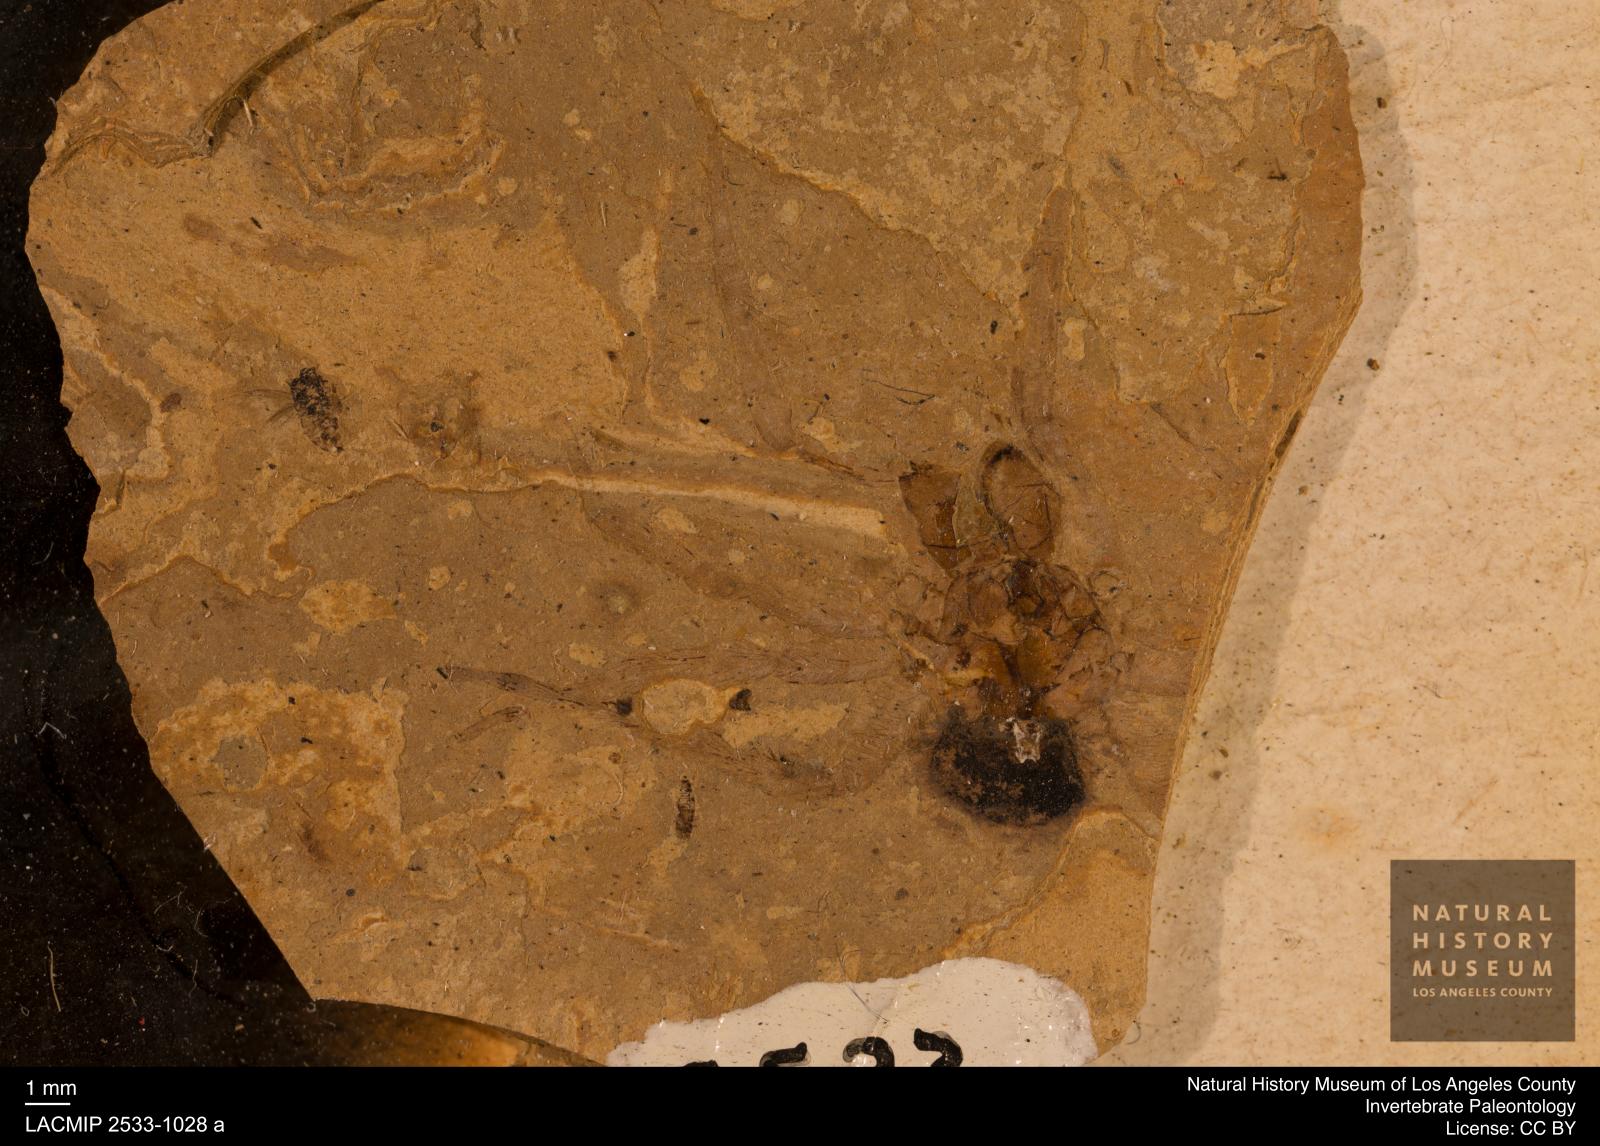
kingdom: Animalia
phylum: Arthropoda
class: Arachnida
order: Araneae
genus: Elvina
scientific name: Elvina Argyroneta antiqua
